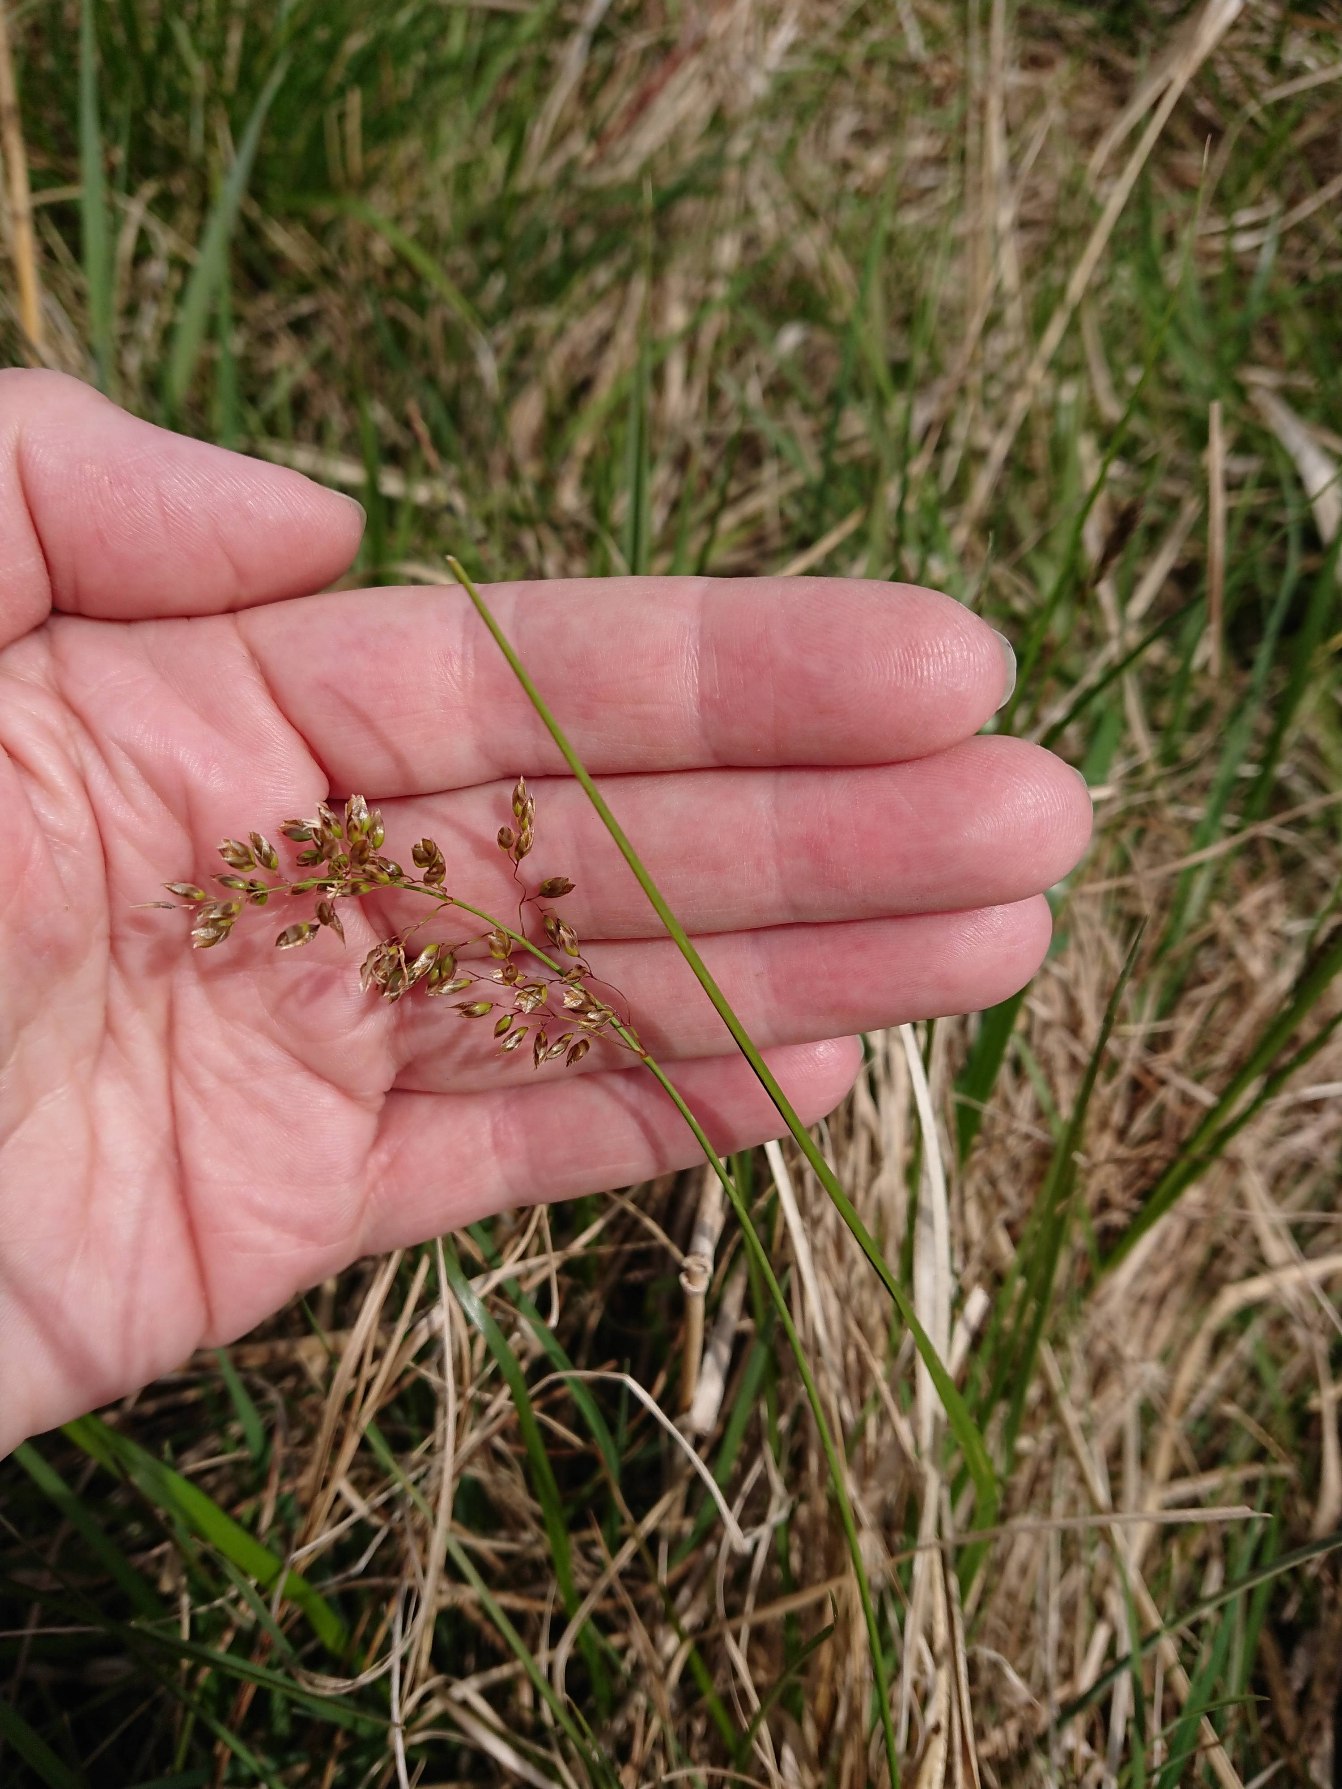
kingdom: Plantae
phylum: Tracheophyta
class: Liliopsida
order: Poales
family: Poaceae
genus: Anthoxanthum
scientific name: Anthoxanthum nitens
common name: Festgræs
